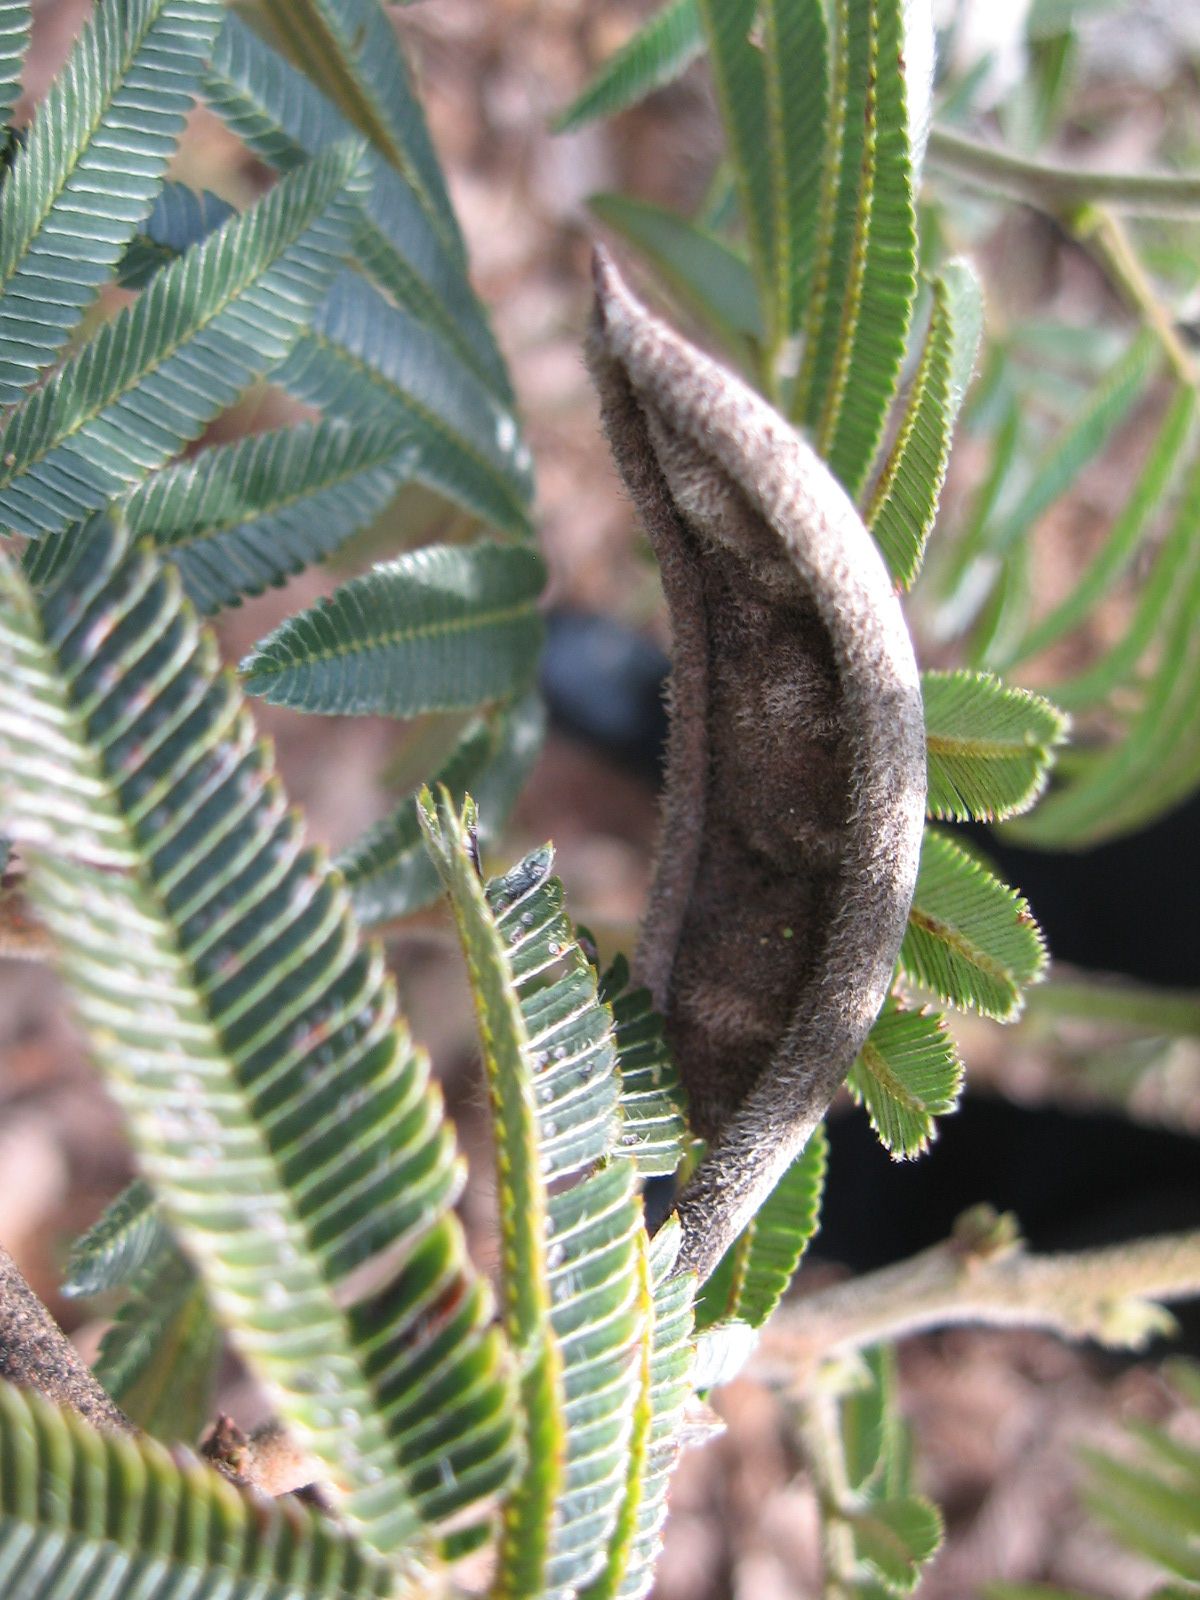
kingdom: Plantae
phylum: Tracheophyta
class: Magnoliopsida
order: Fabales
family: Fabaceae
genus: Calliandra
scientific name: Calliandra houstoniana
